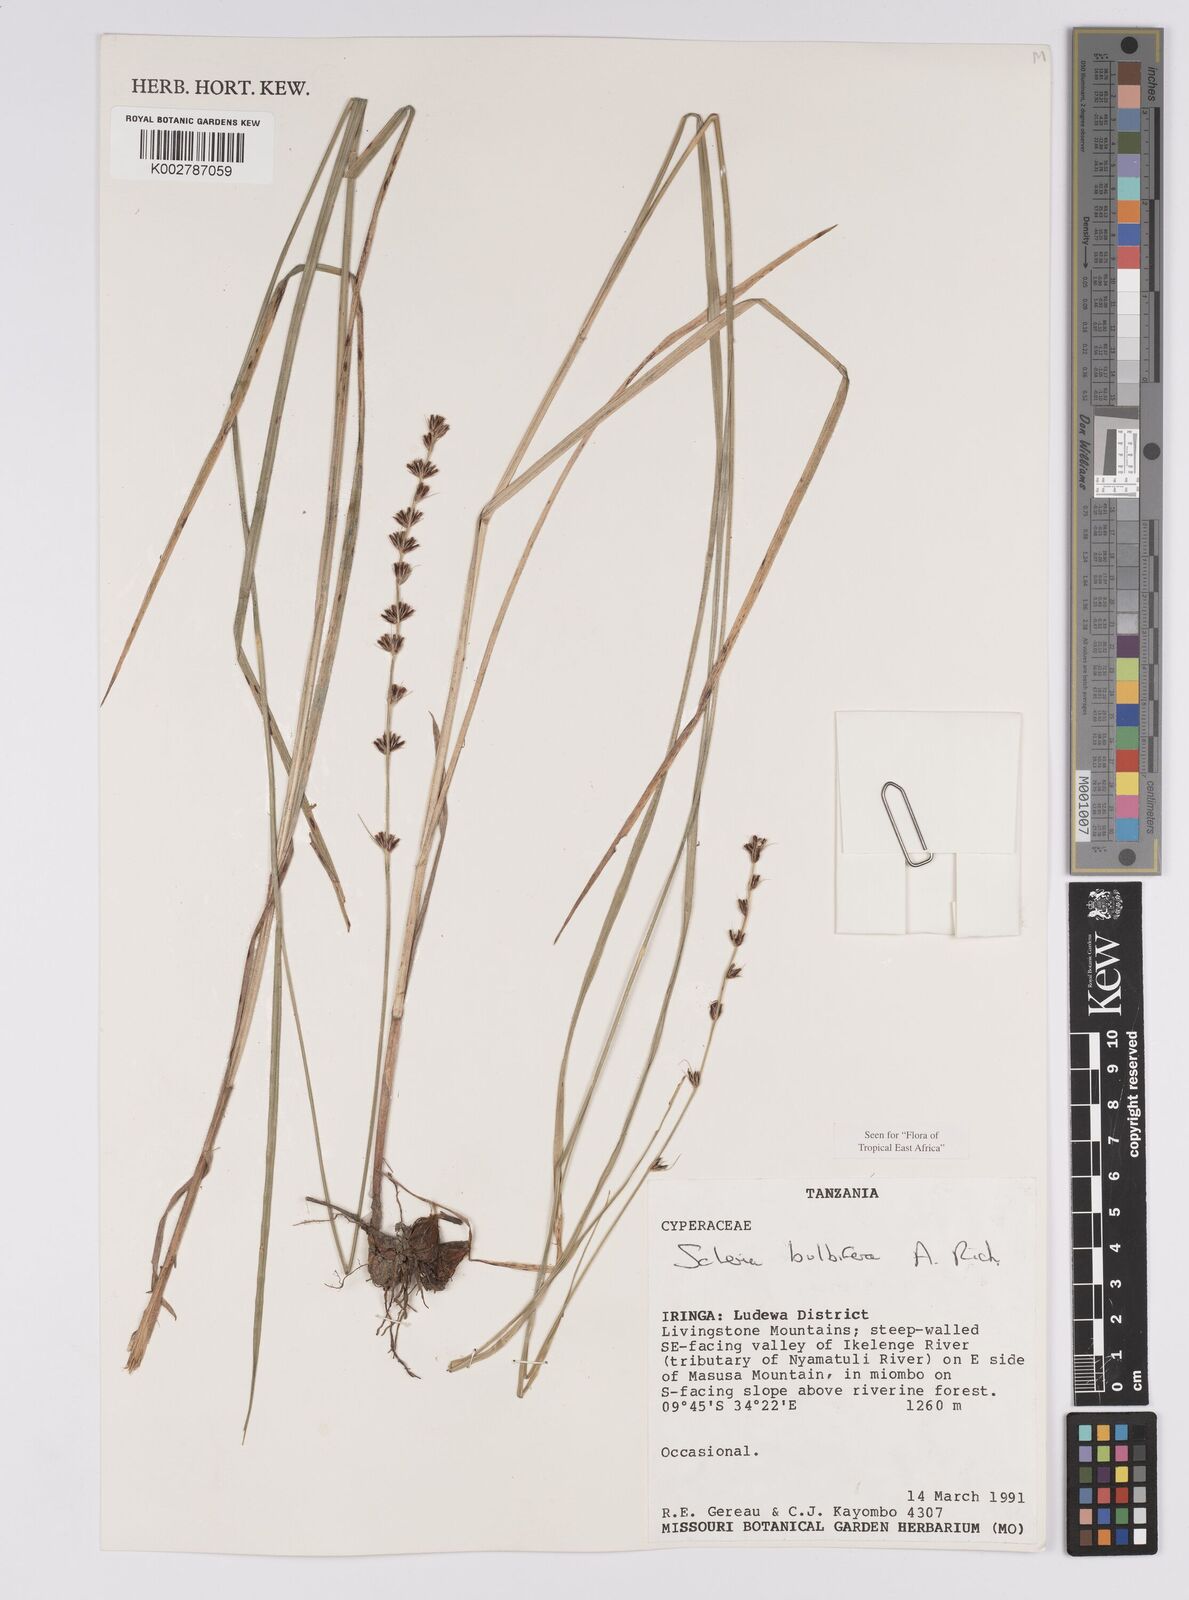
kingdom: Plantae
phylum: Tracheophyta
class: Liliopsida
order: Poales
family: Cyperaceae
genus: Scleria
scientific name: Scleria bulbifera
